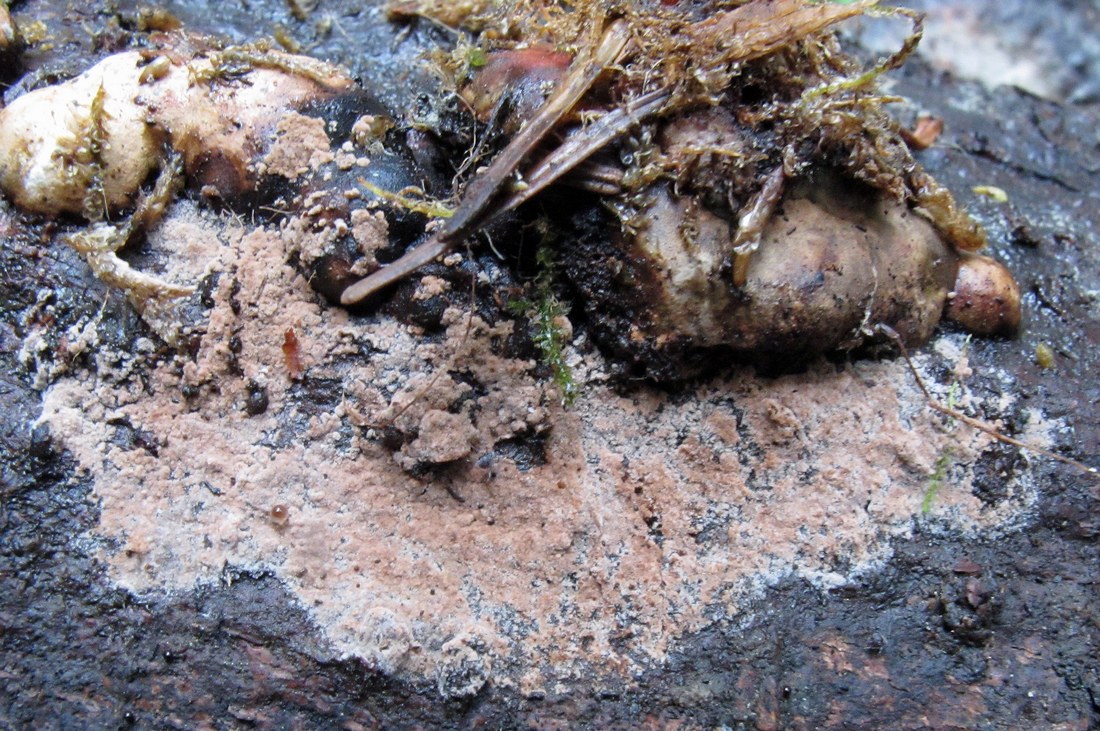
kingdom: Fungi
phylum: Basidiomycota
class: Agaricomycetes
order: Thelephorales
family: Thelephoraceae
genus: Tomentella
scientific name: Tomentella
